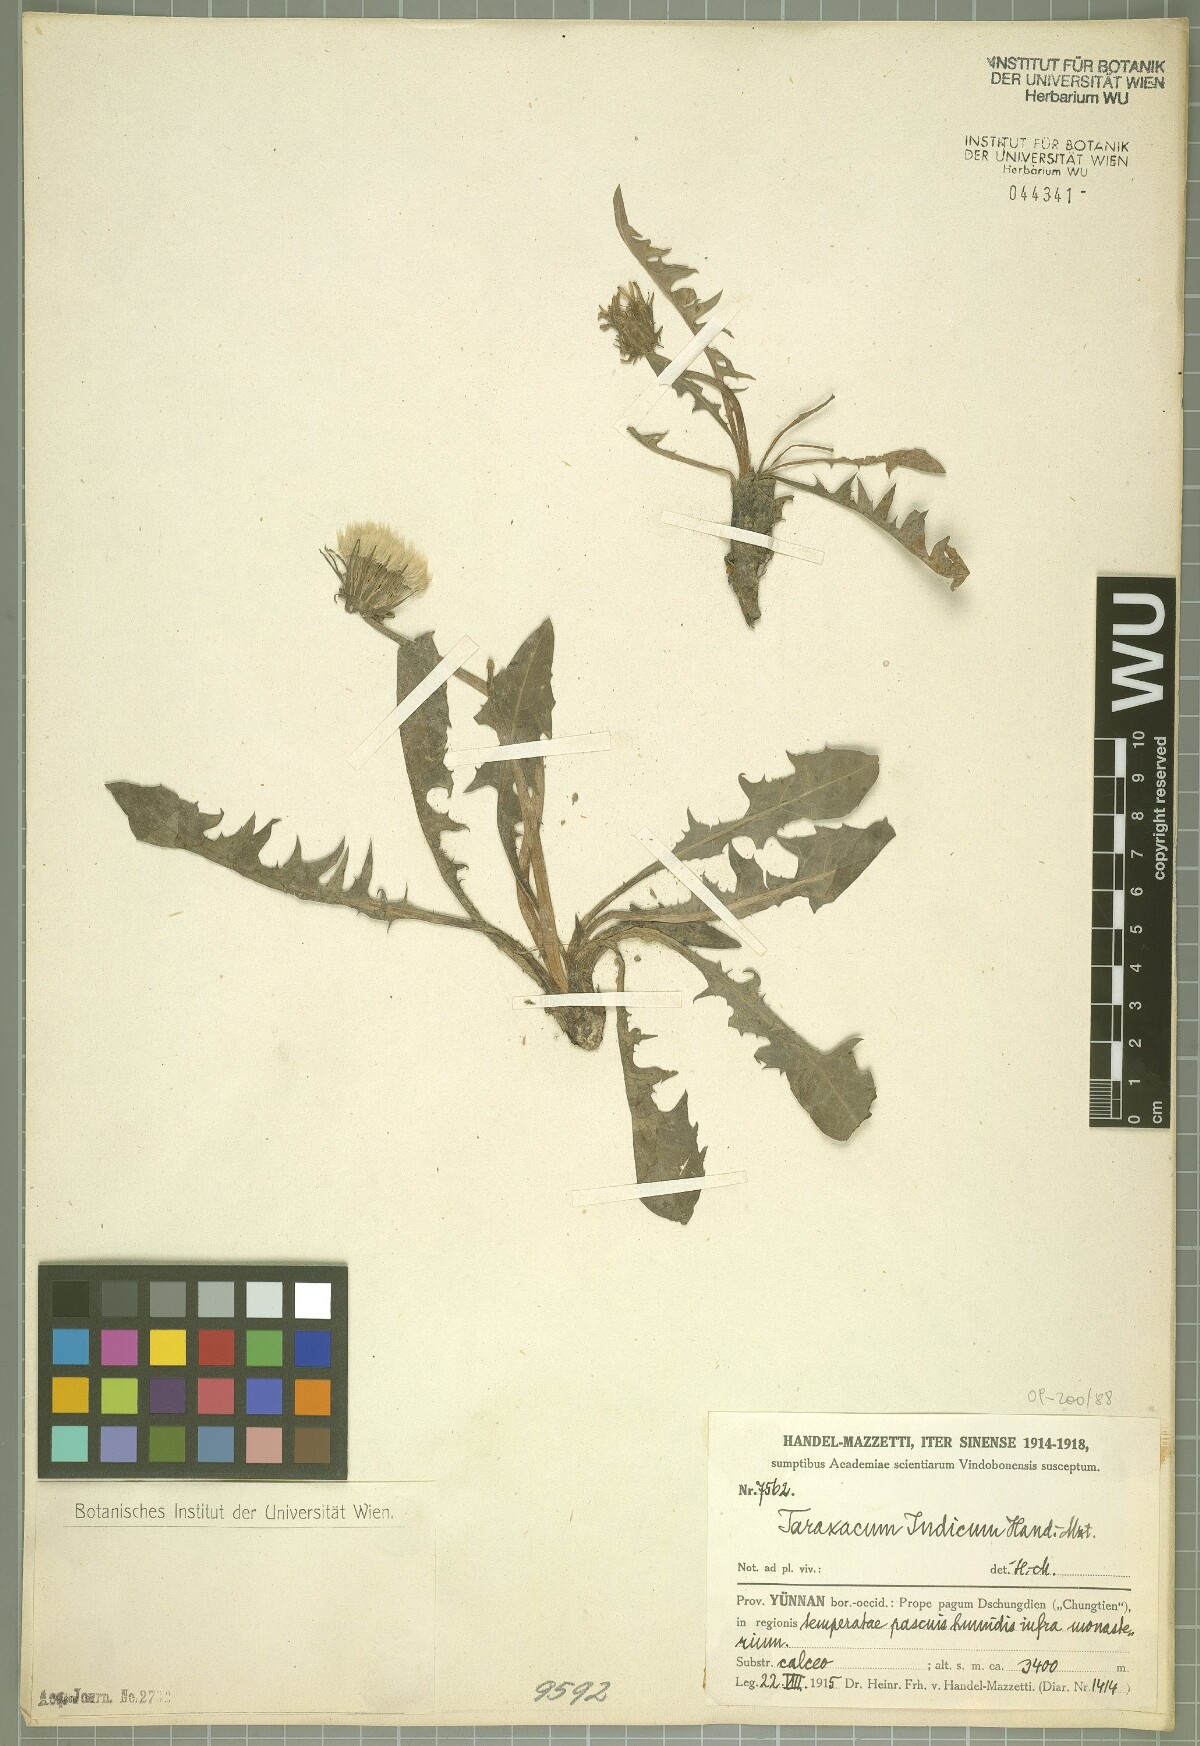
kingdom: Plantae
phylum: Tracheophyta
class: Magnoliopsida
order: Asterales
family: Asteraceae
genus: Taraxacum
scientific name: Taraxacum indicum
